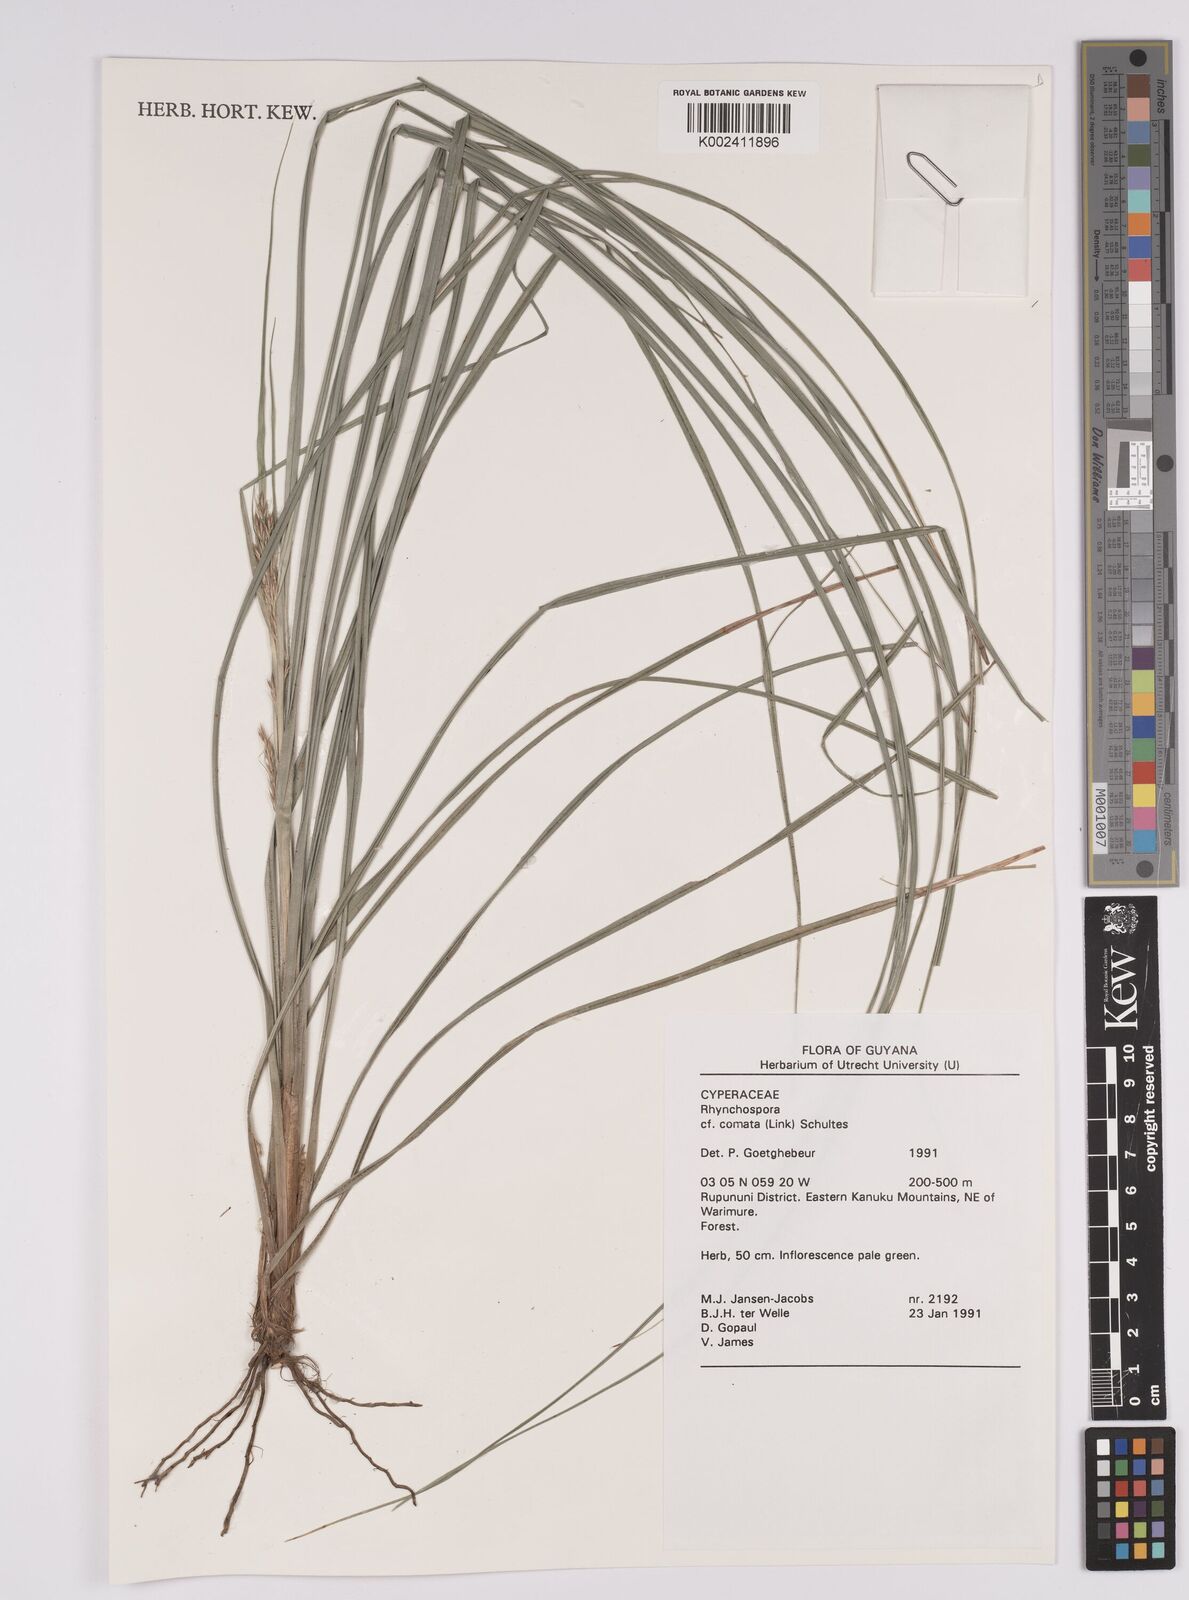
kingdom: Plantae
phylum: Tracheophyta
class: Liliopsida
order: Poales
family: Cyperaceae
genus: Rhynchospora
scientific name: Rhynchospora comata
